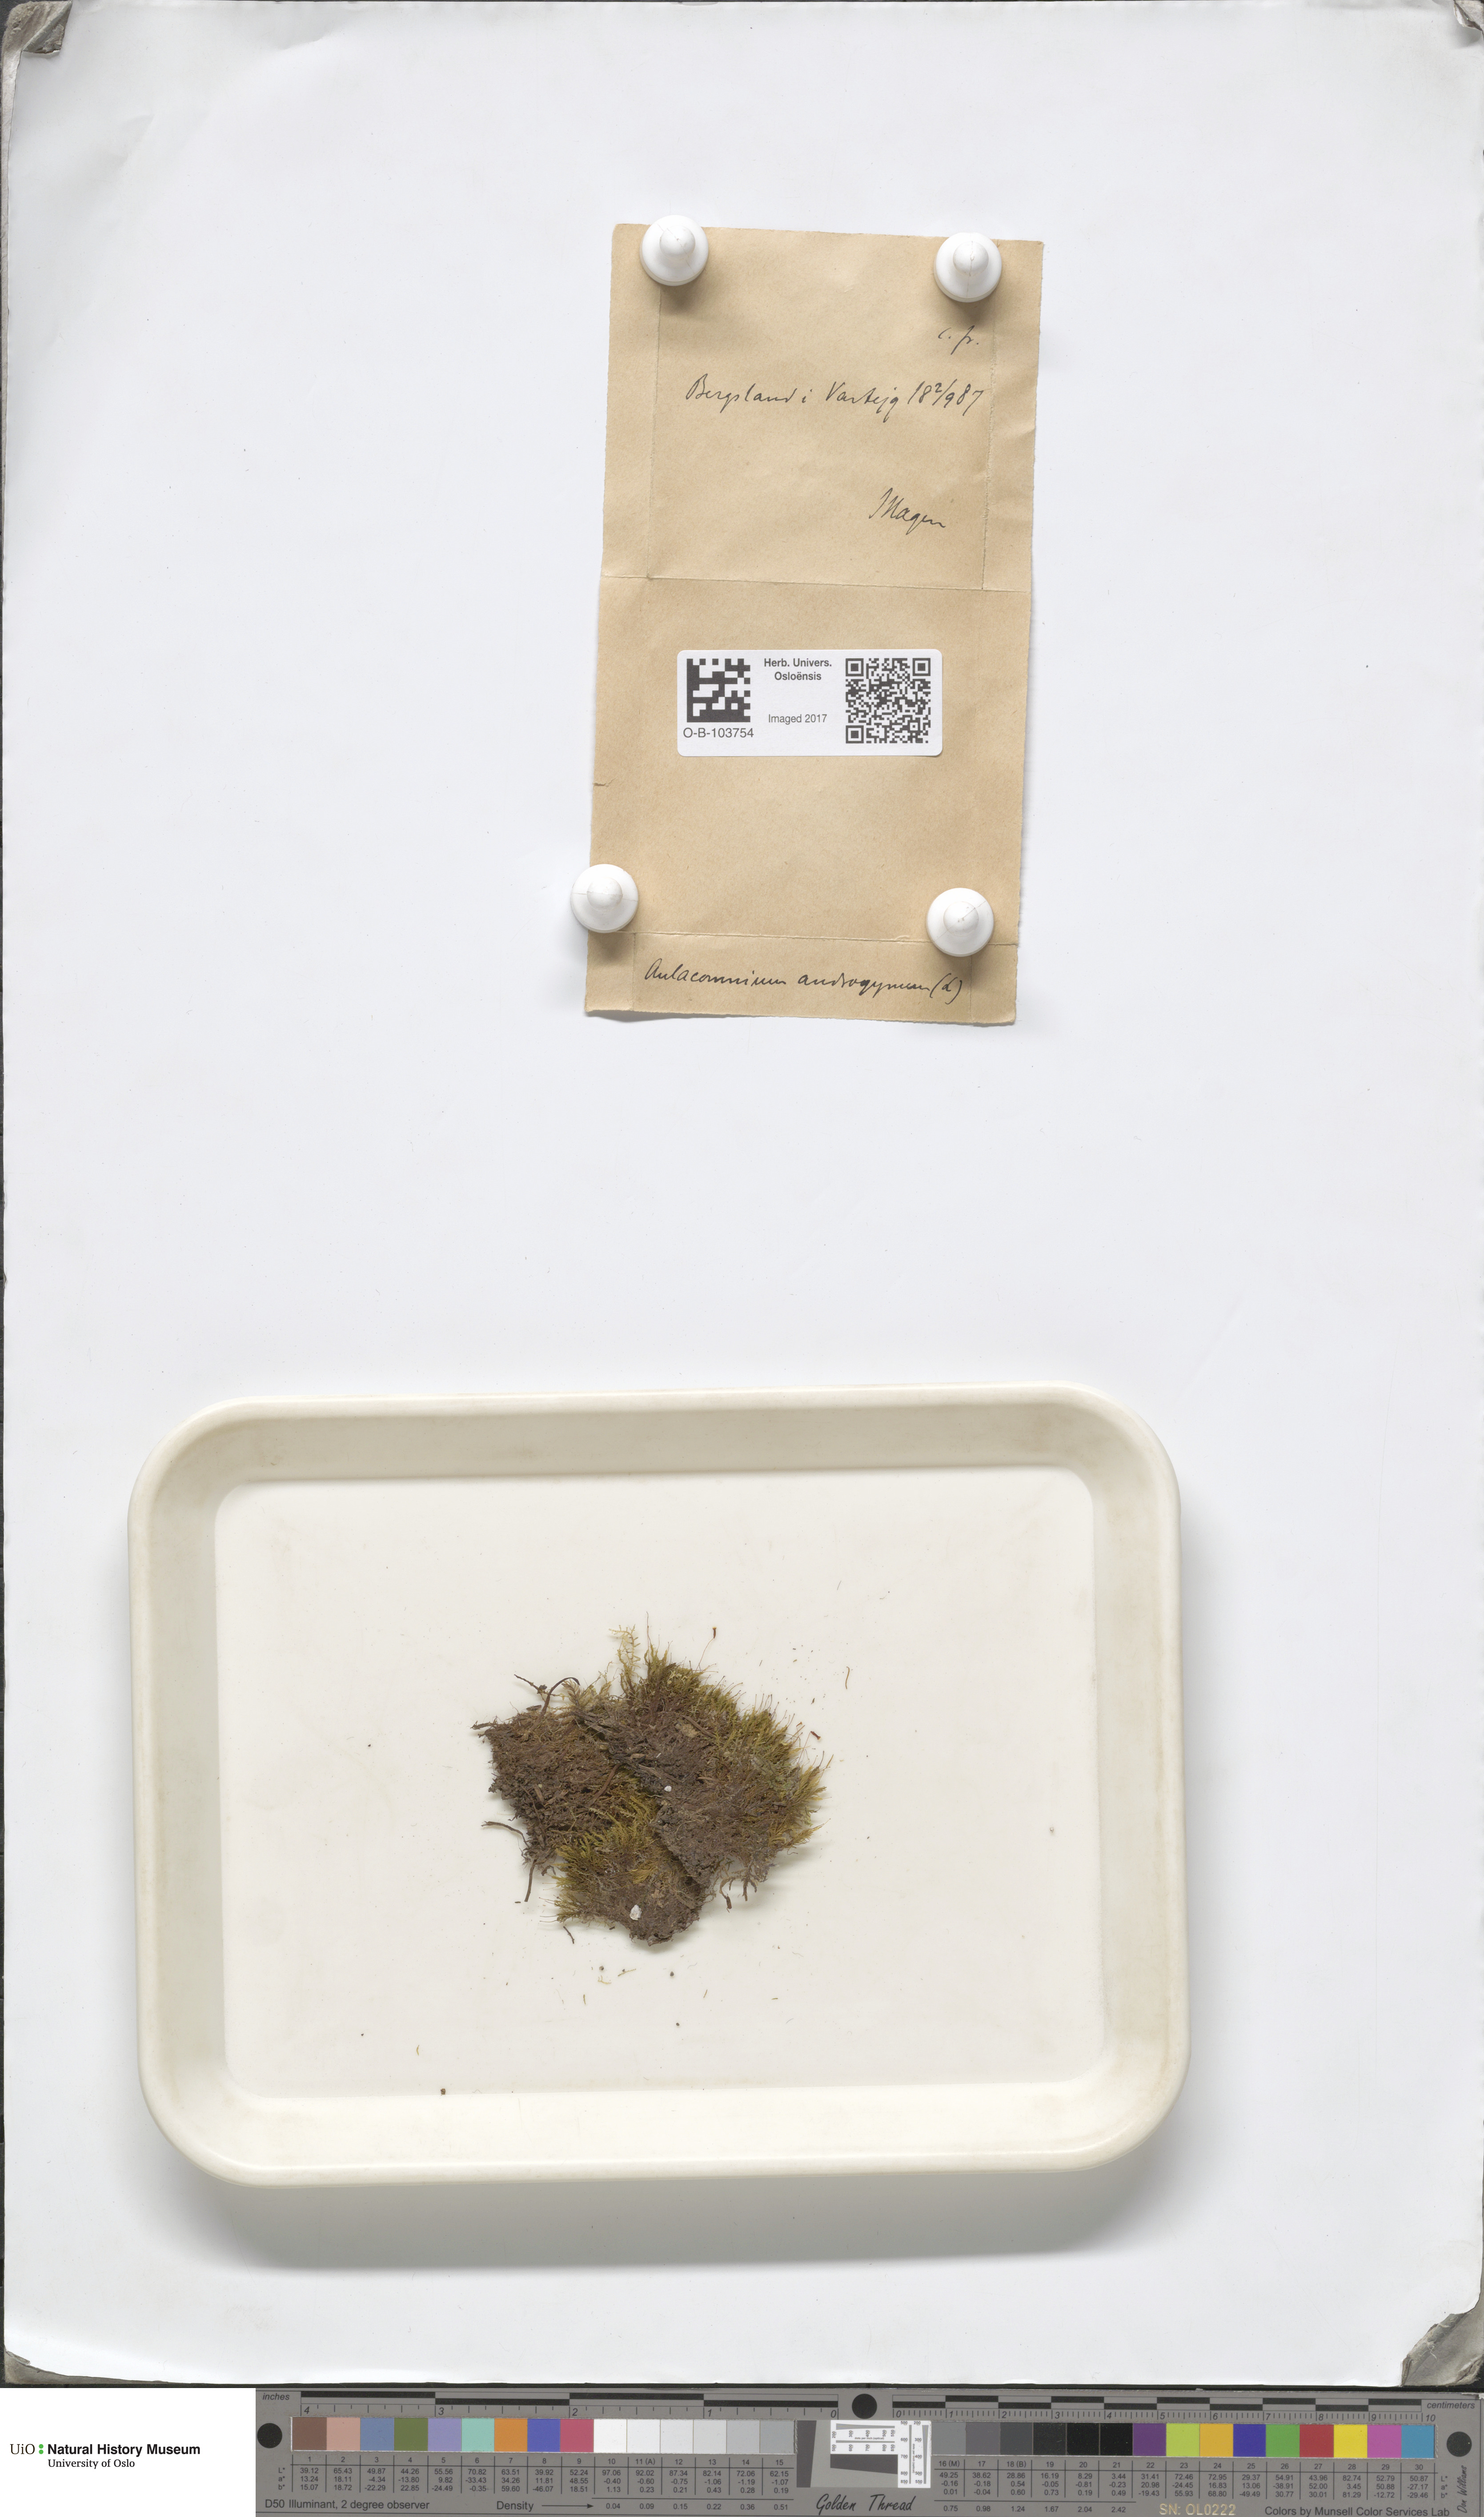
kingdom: Plantae
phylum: Bryophyta
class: Bryopsida
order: Aulacomniales
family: Aulacomniaceae
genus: Aulacomnium
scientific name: Aulacomnium androgynum
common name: Little groove moss
